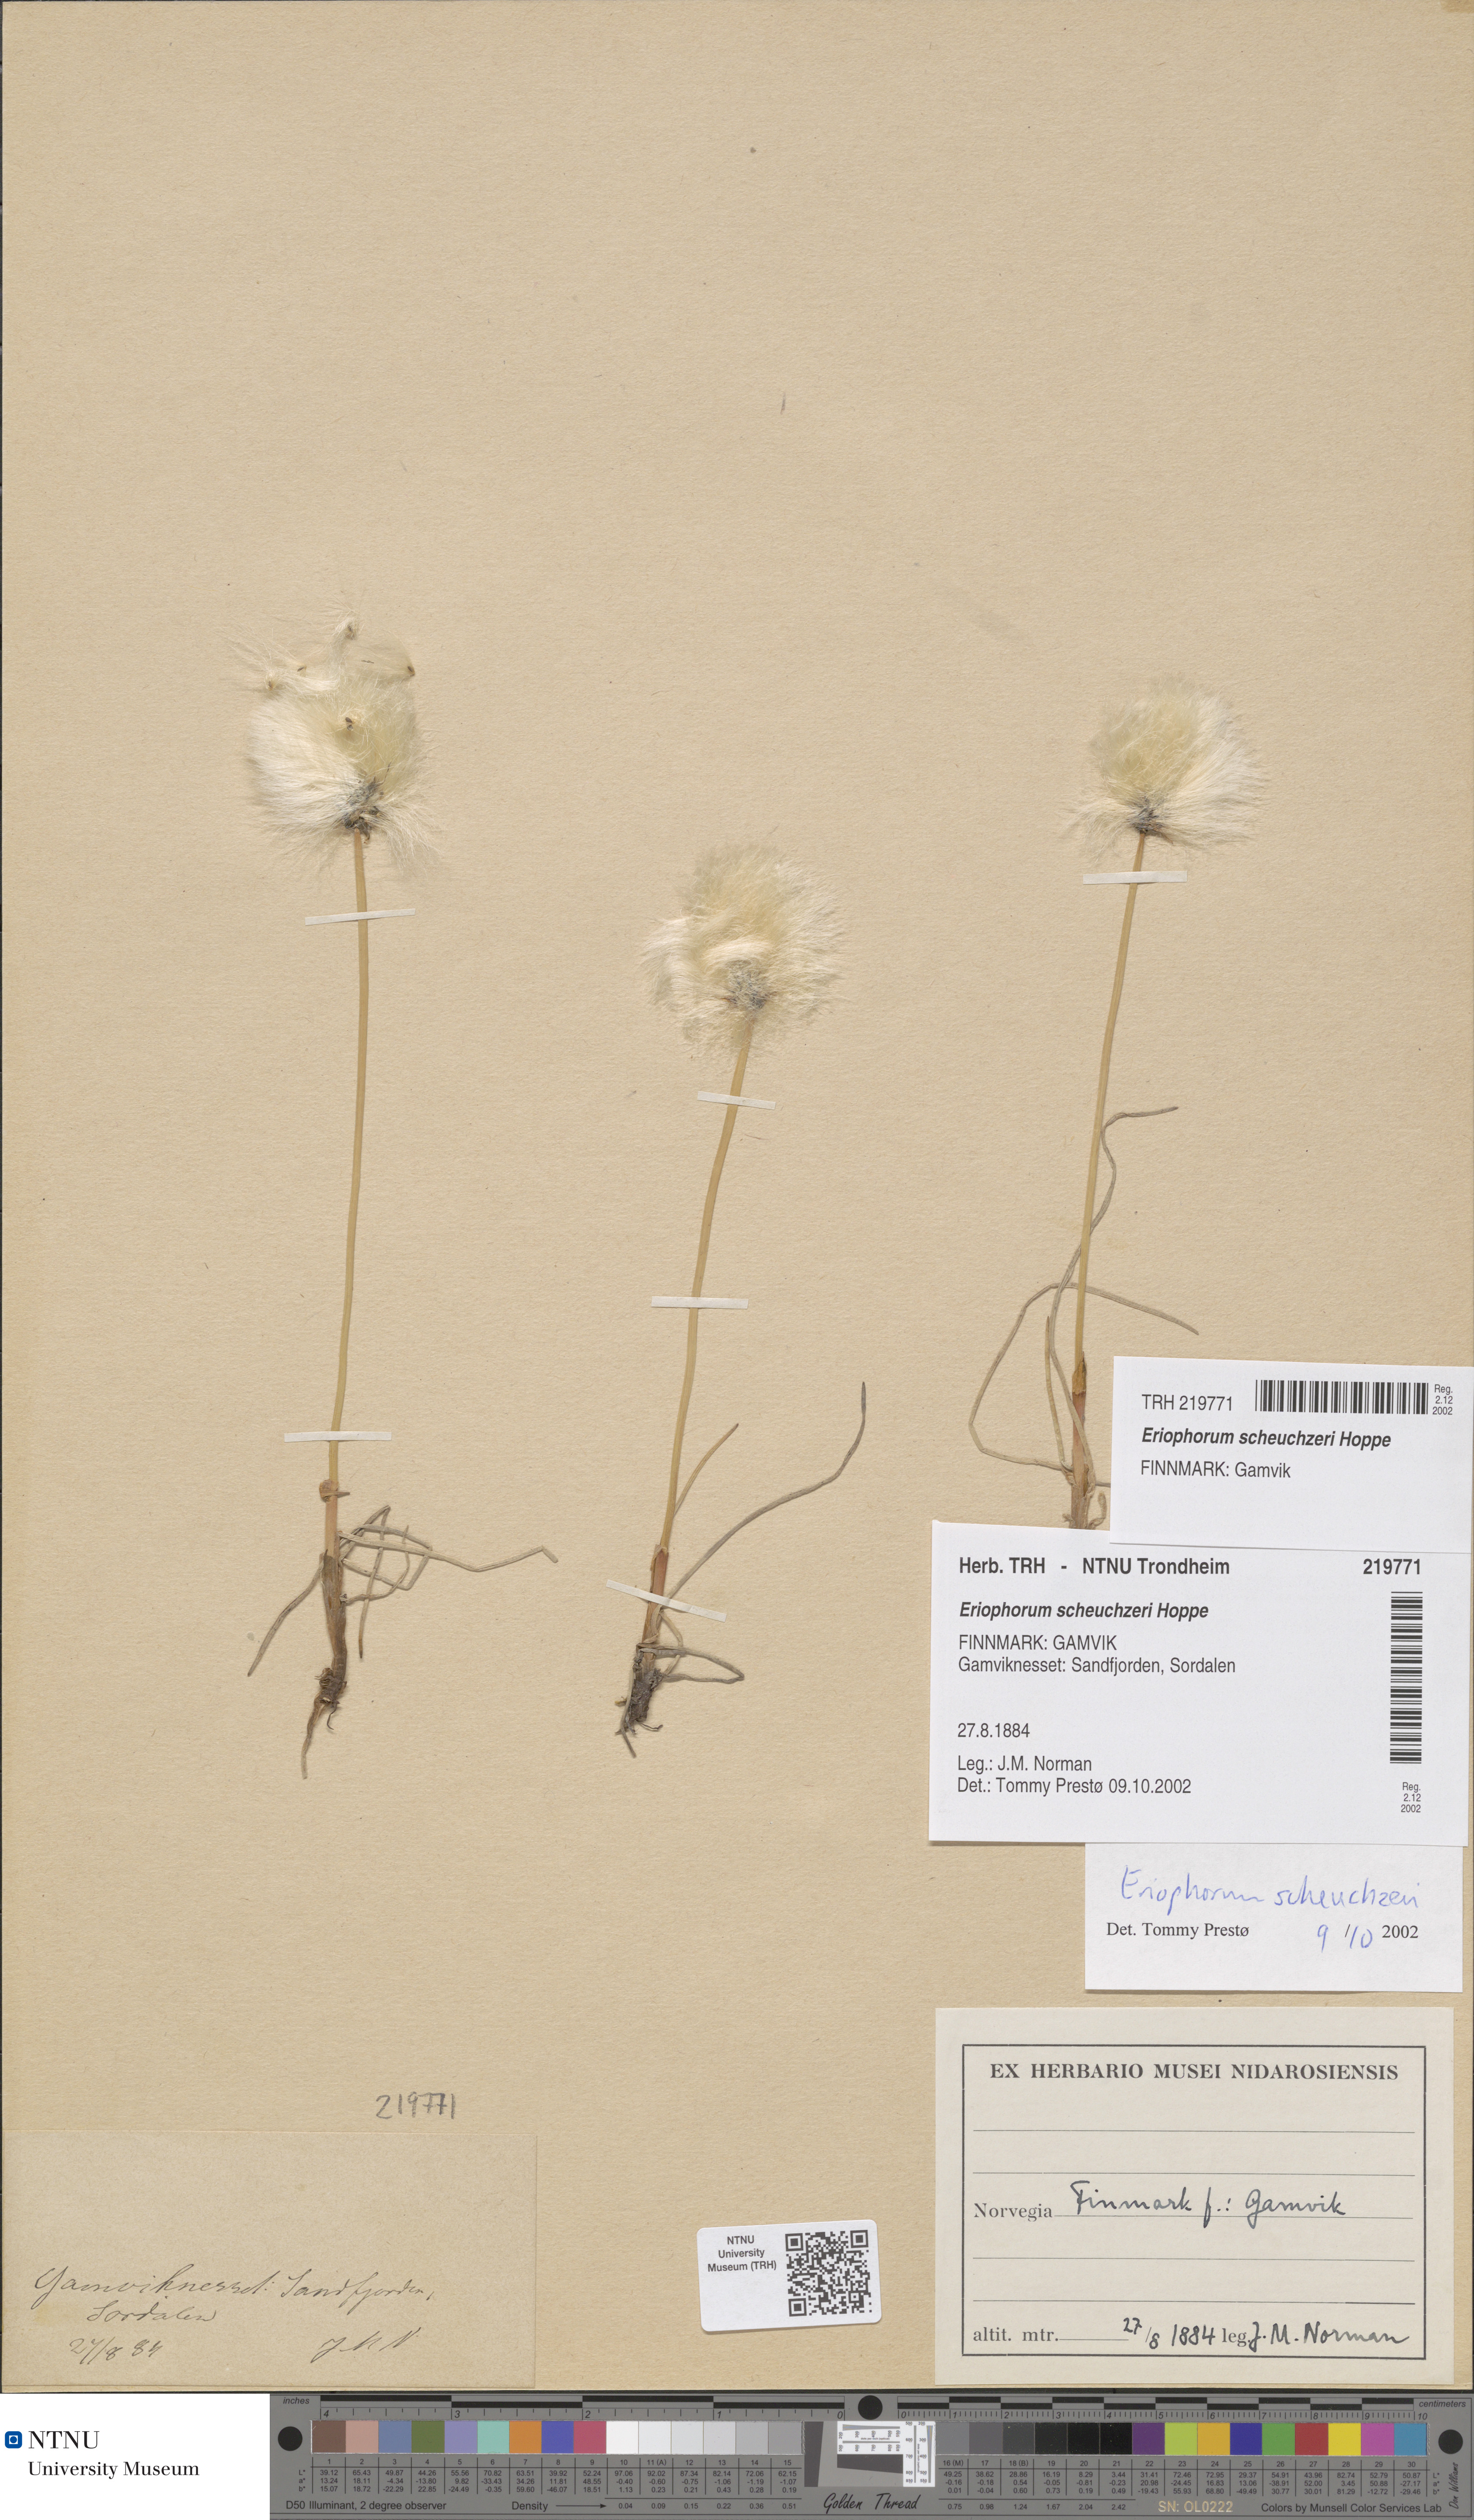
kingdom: Plantae
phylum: Tracheophyta
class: Liliopsida
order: Poales
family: Cyperaceae
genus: Eriophorum
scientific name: Eriophorum scheuchzeri
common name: Scheuchzer's cottongrass
